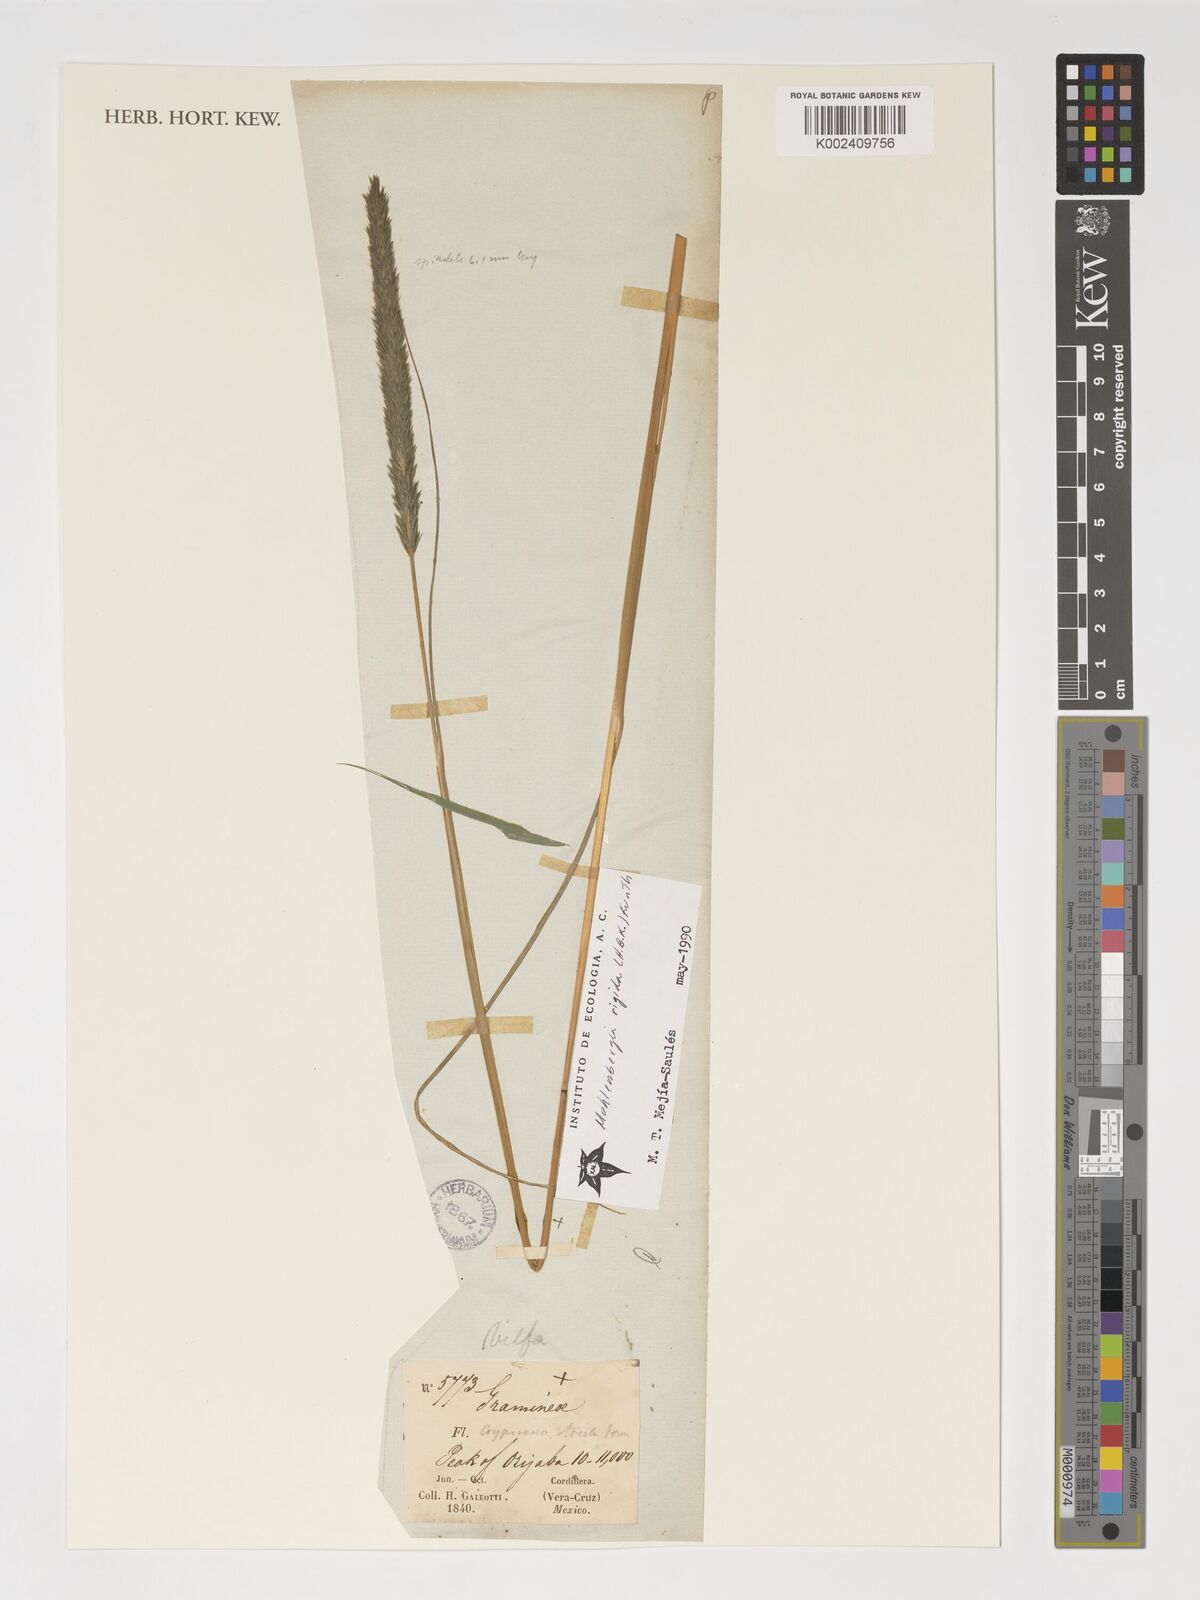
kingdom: Plantae
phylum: Tracheophyta
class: Liliopsida
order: Poales
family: Poaceae
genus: Muhlenbergia
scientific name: Muhlenbergia rigida
